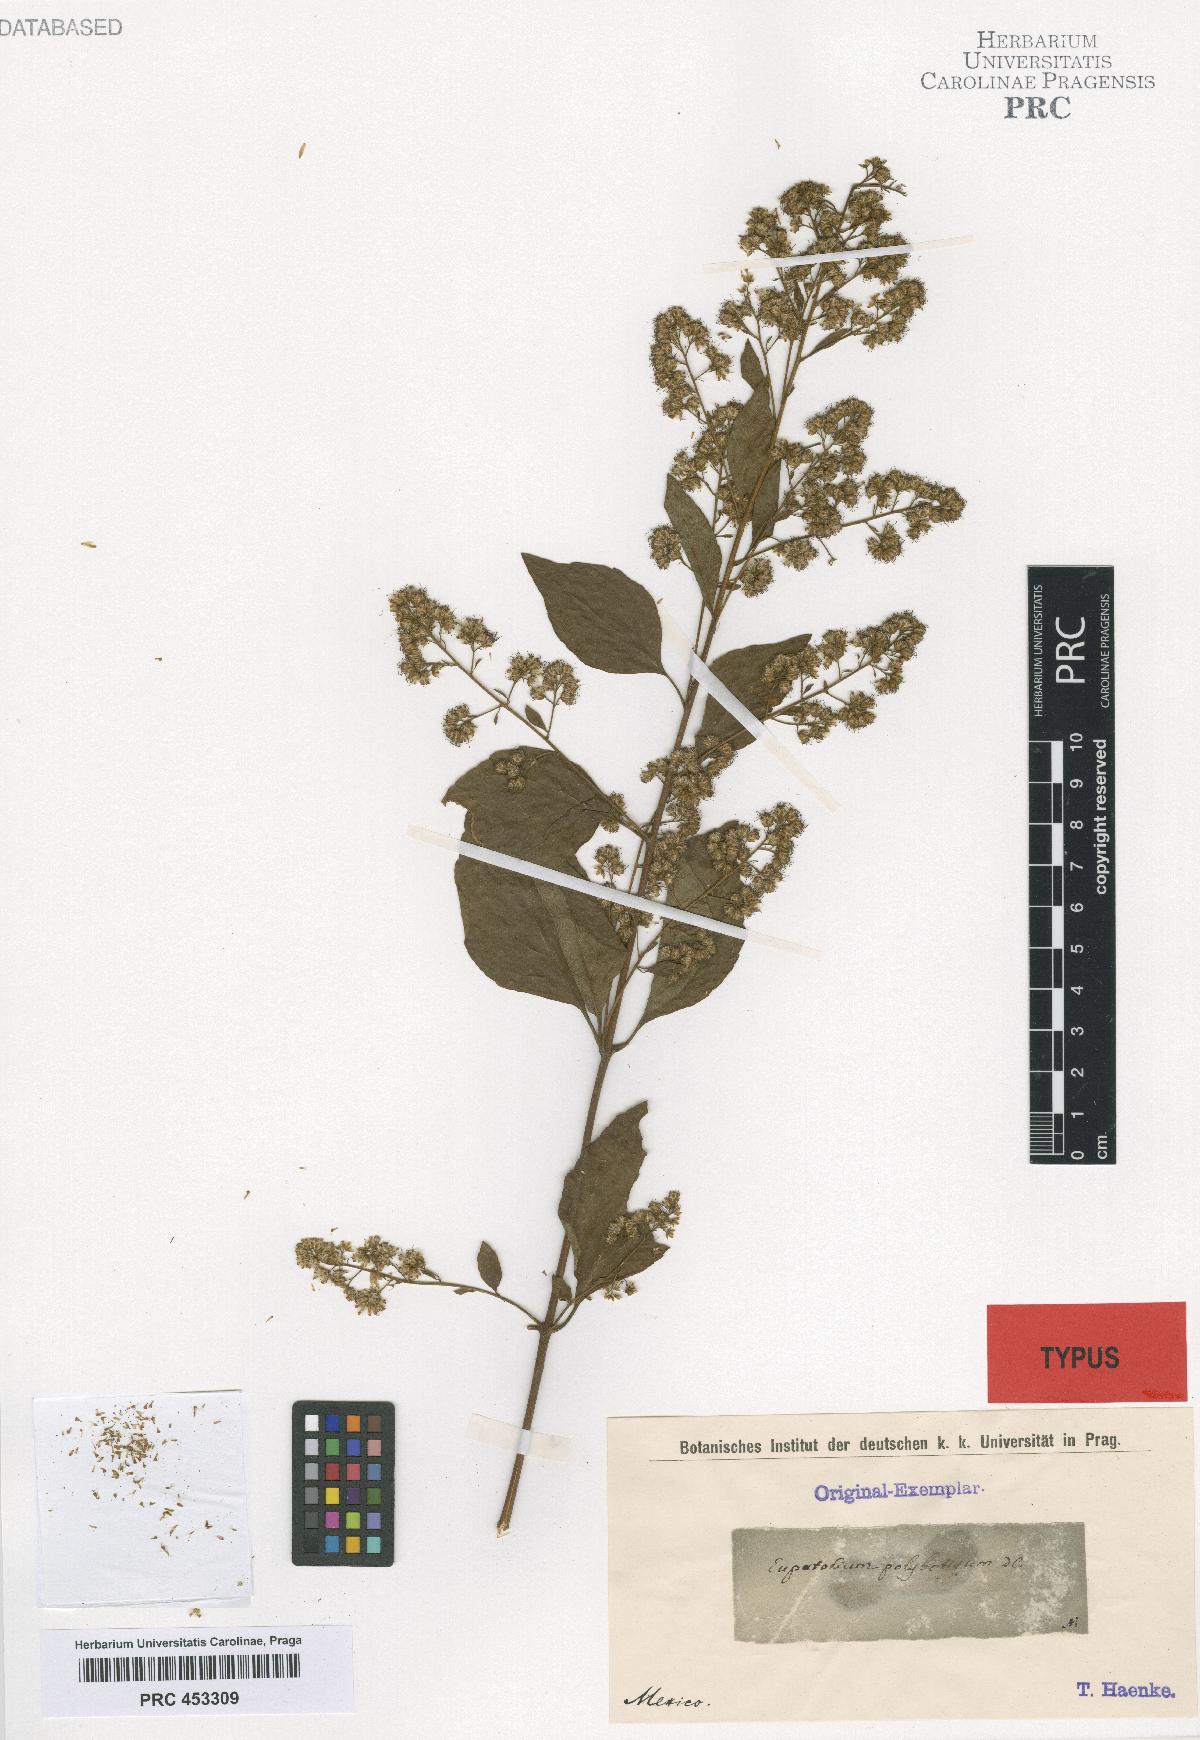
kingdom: Plantae
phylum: Tracheophyta
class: Magnoliopsida
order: Asterales
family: Asteraceae
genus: Decachaeta
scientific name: Decachaeta ovatifolia
